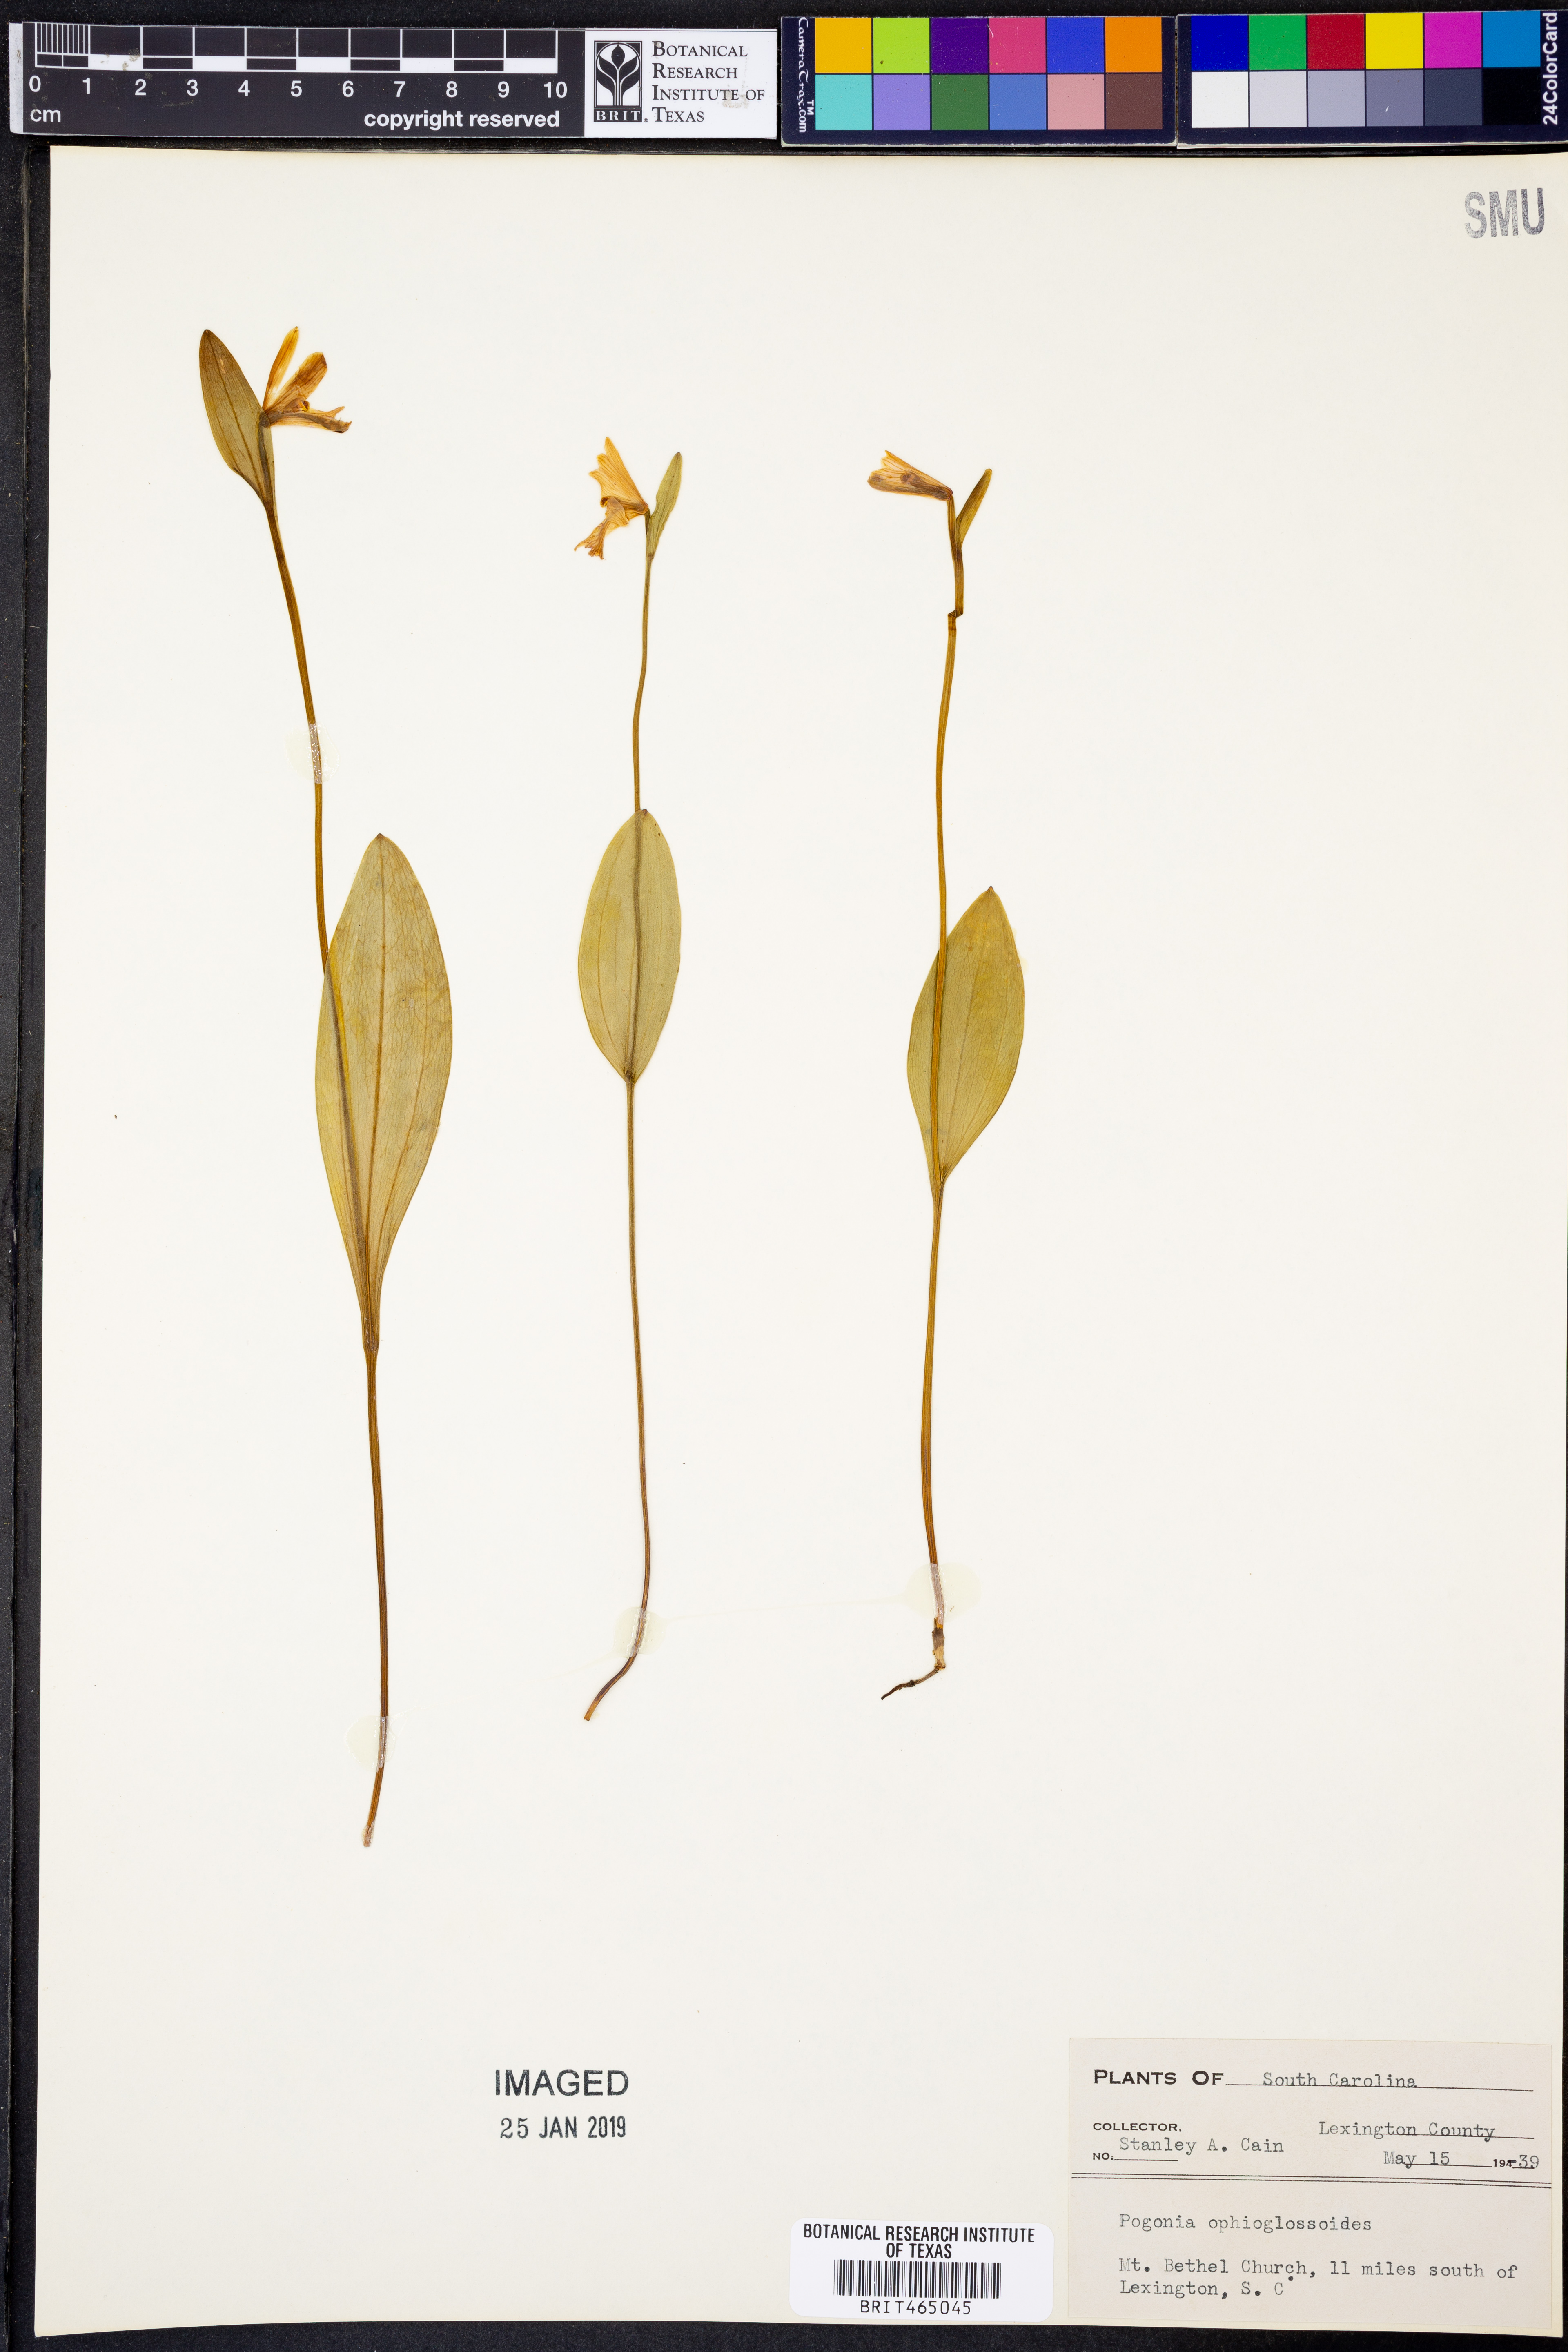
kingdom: Plantae
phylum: Tracheophyta
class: Liliopsida
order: Asparagales
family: Orchidaceae
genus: Pogonia
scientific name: Pogonia ophioglossoides
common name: Rose pogonia
